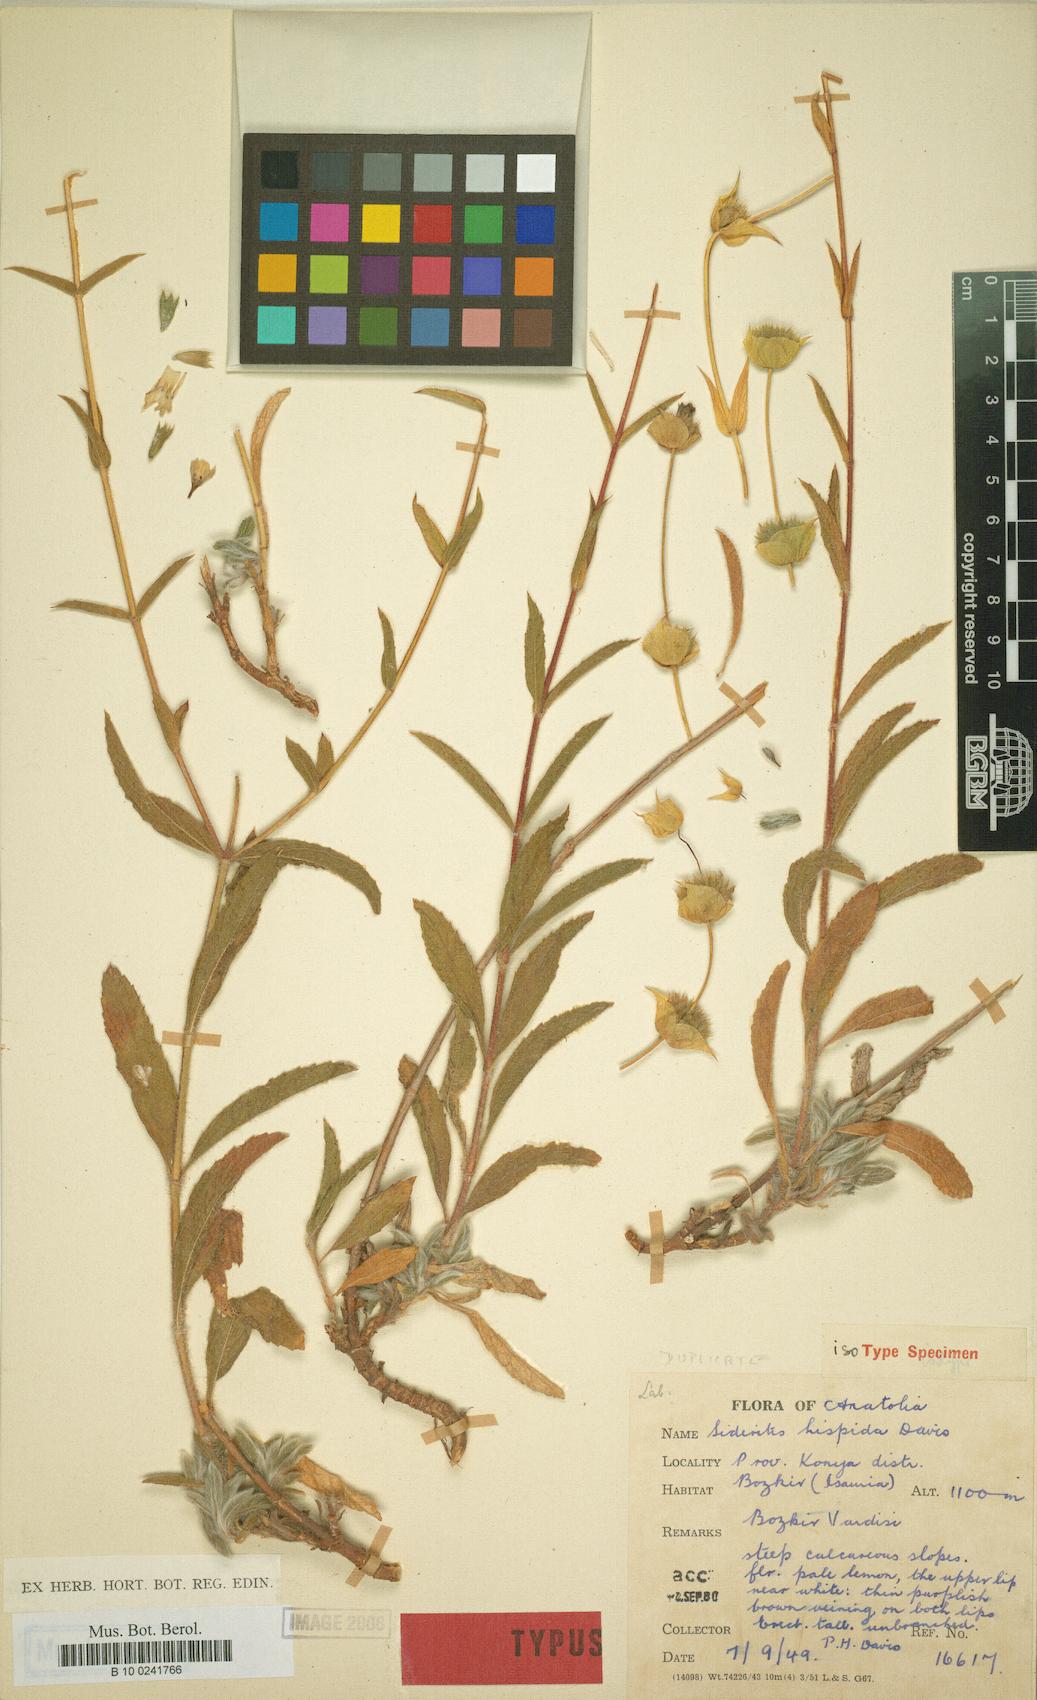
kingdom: Plantae
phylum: Tracheophyta
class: Magnoliopsida
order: Lamiales
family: Lamiaceae
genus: Sideritis
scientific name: Sideritis hispida
